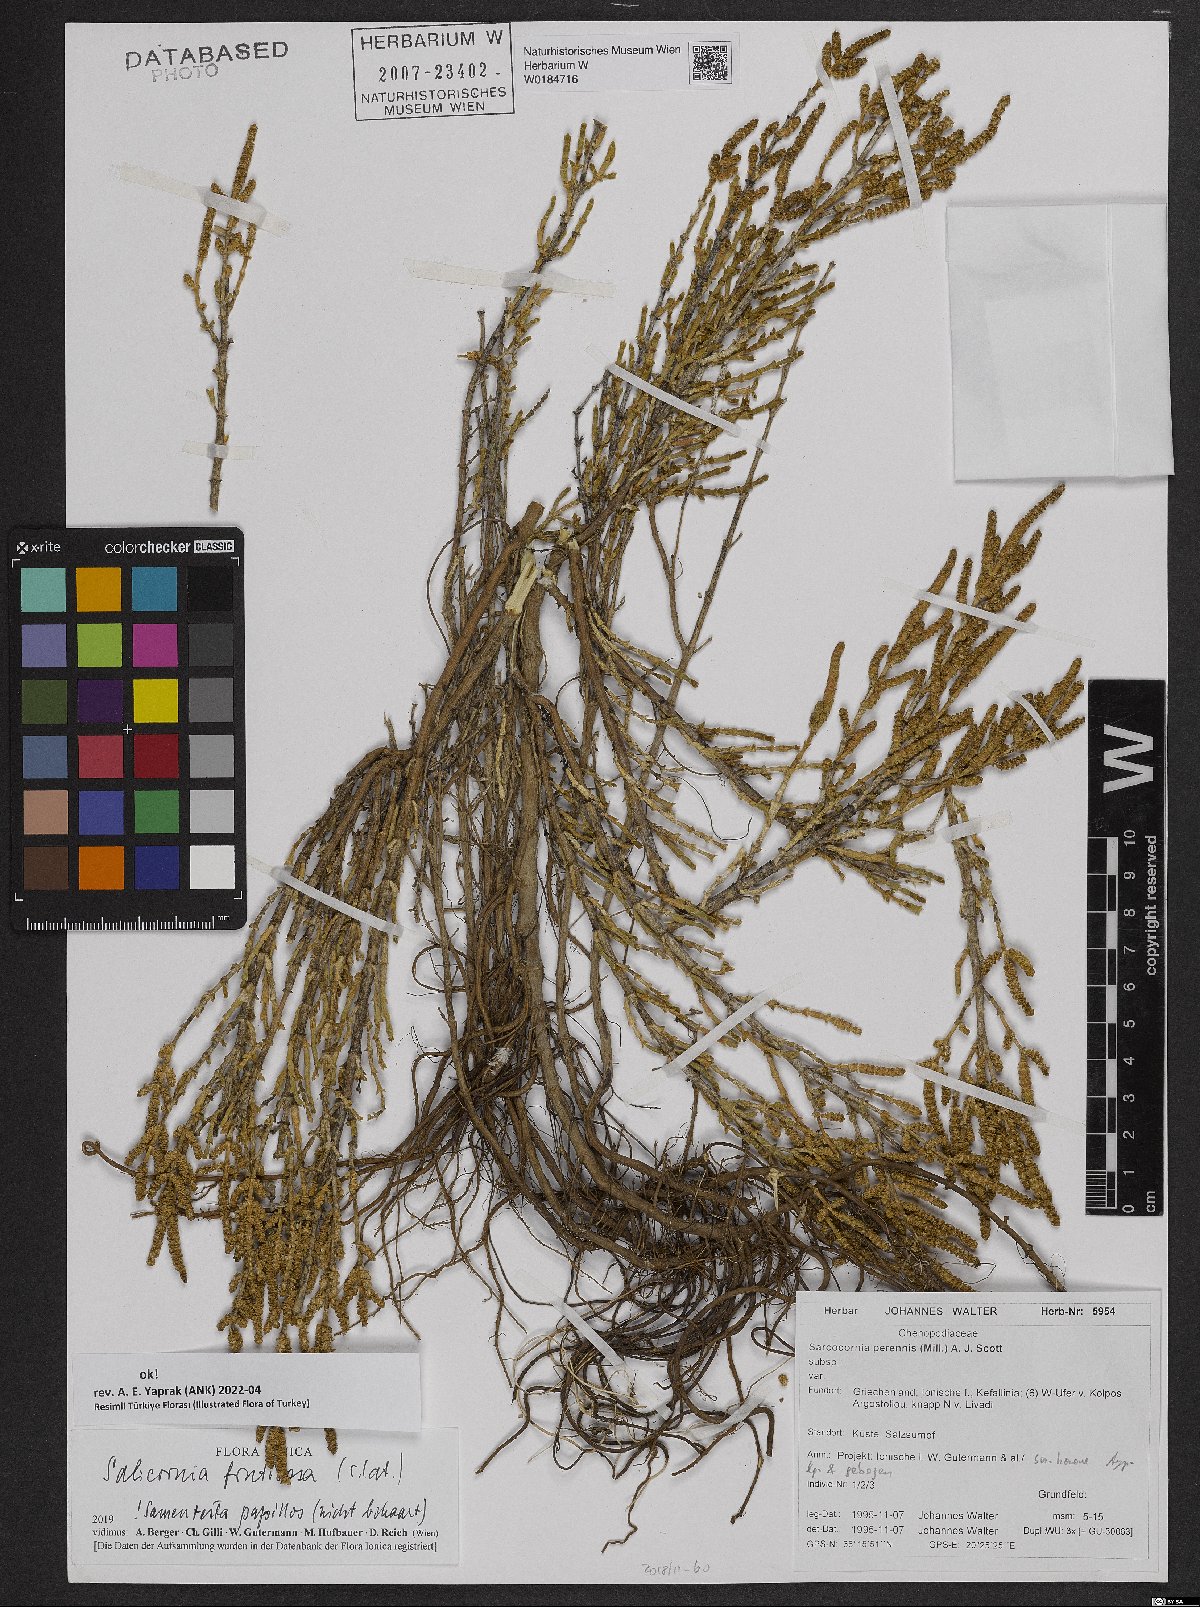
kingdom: Plantae
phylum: Tracheophyta
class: Magnoliopsida
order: Caryophyllales
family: Amaranthaceae
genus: Salicornia
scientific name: Salicornia fruticosa
